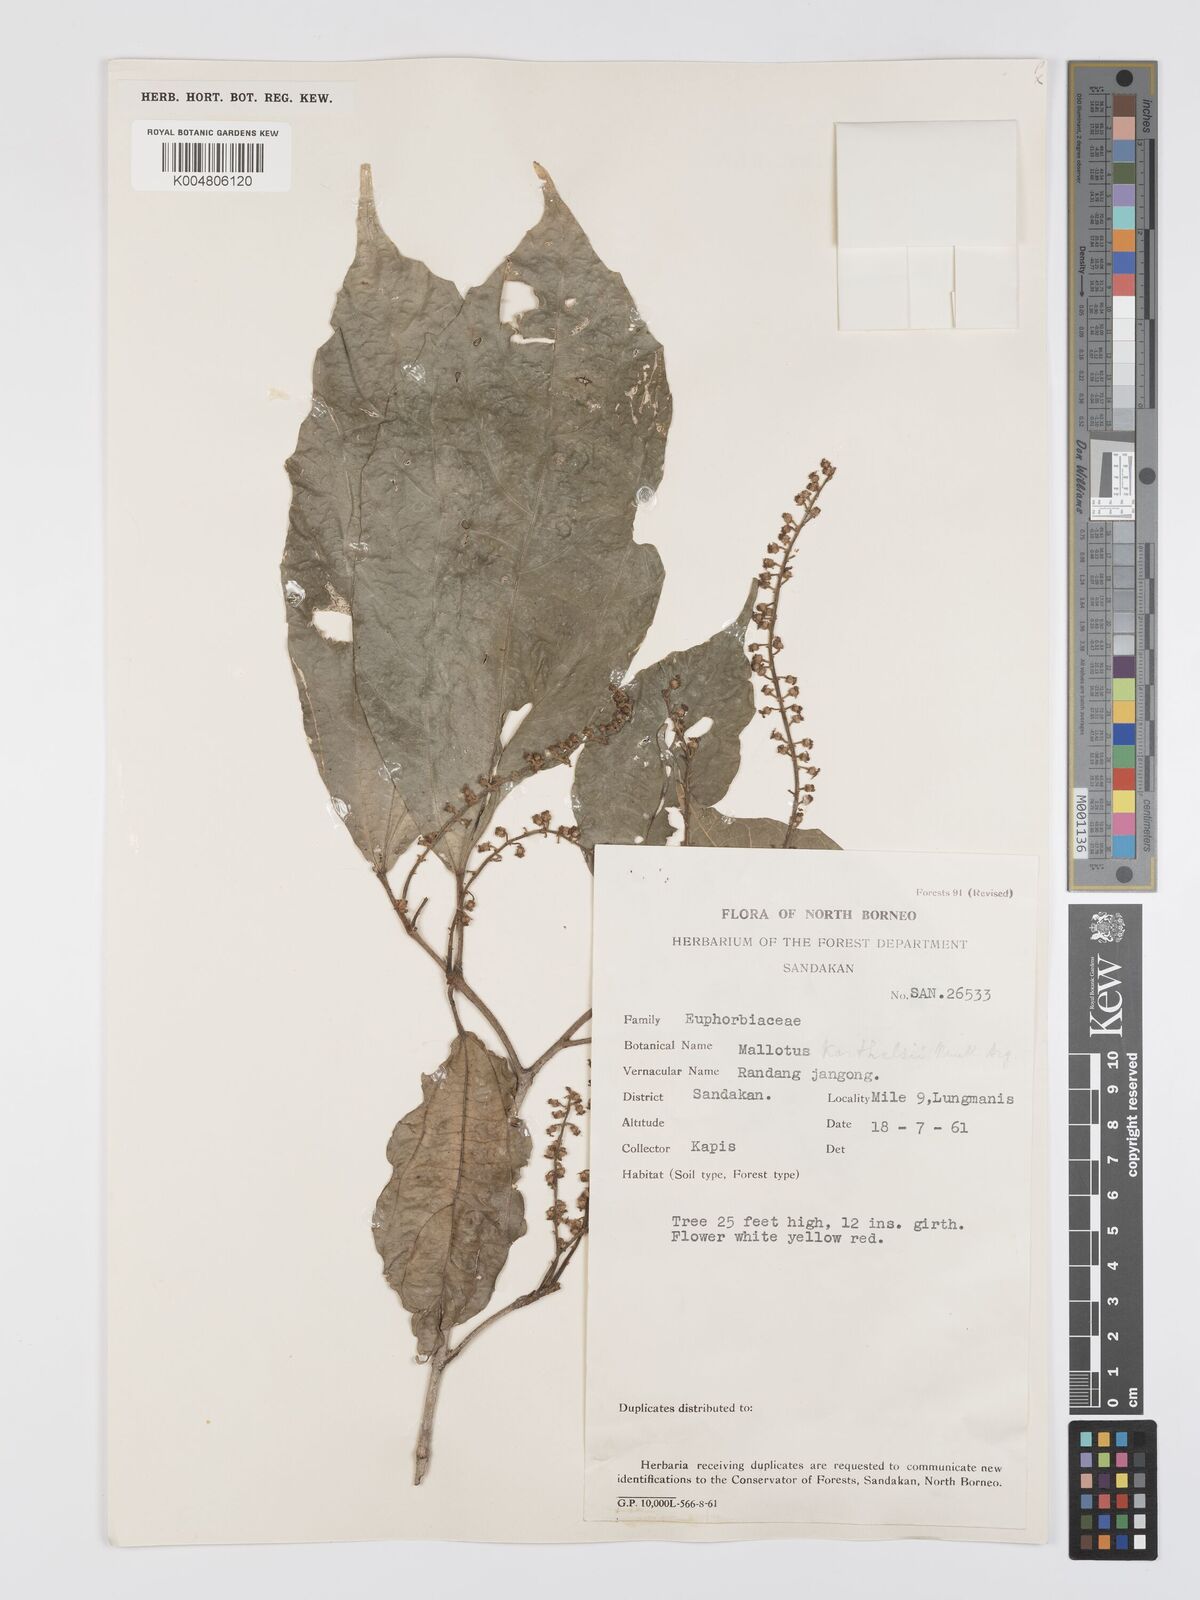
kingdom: Plantae
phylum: Tracheophyta
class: Magnoliopsida
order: Malpighiales
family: Euphorbiaceae
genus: Mallotus
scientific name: Mallotus korthalsii
